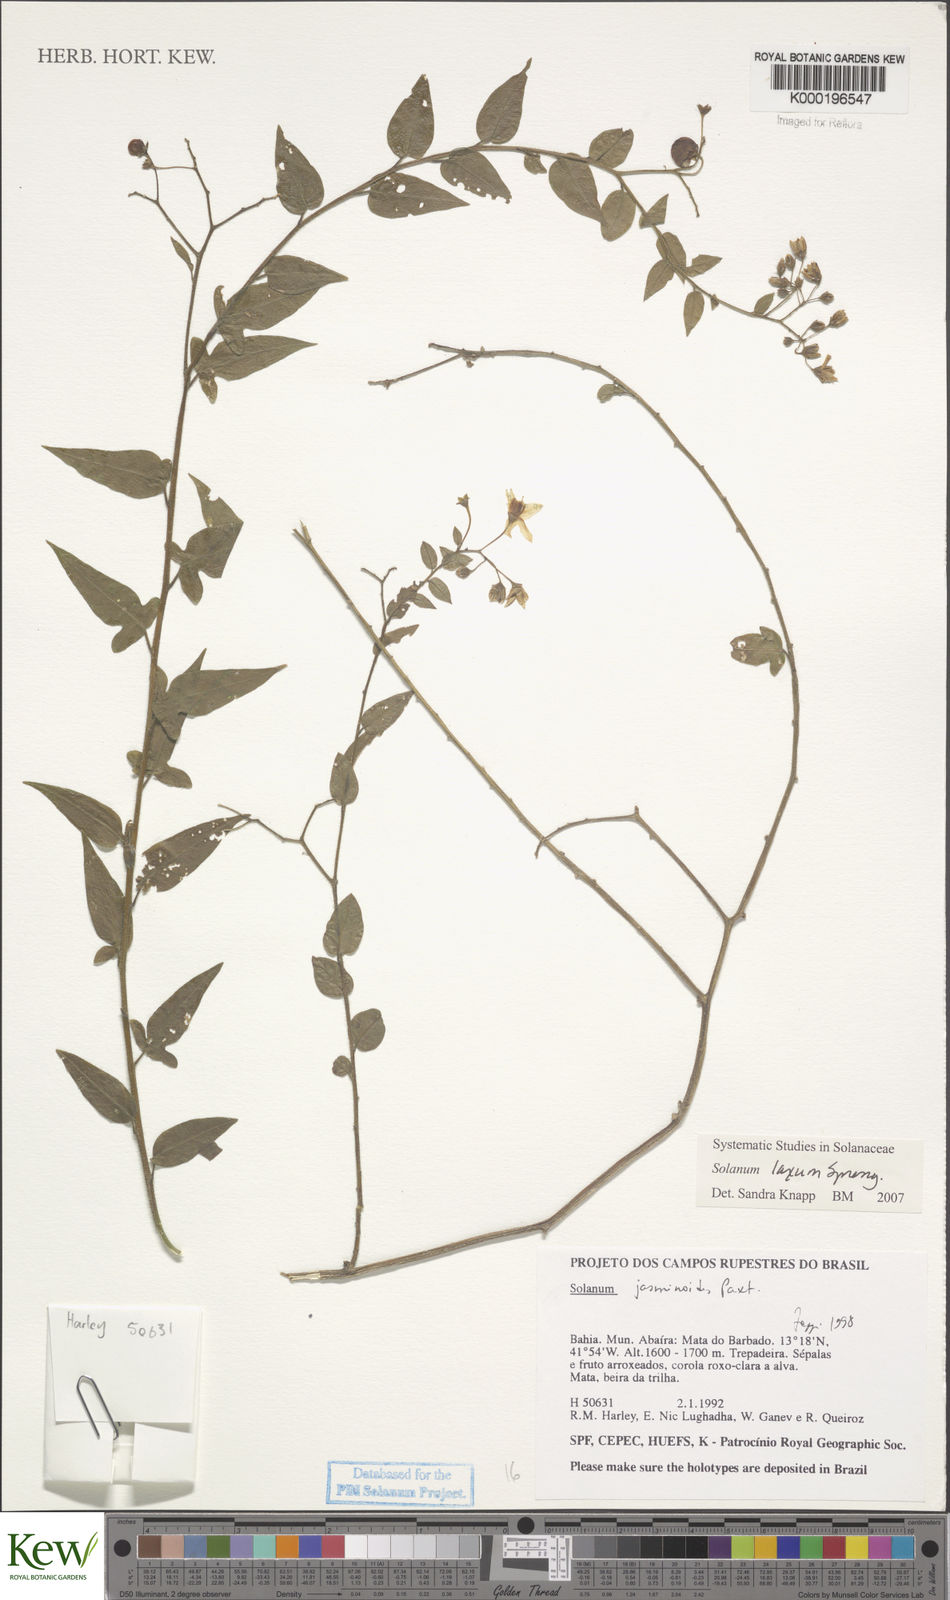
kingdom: Plantae
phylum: Tracheophyta
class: Magnoliopsida
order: Solanales
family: Solanaceae
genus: Solanum
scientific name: Solanum laxum
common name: Nightshade
